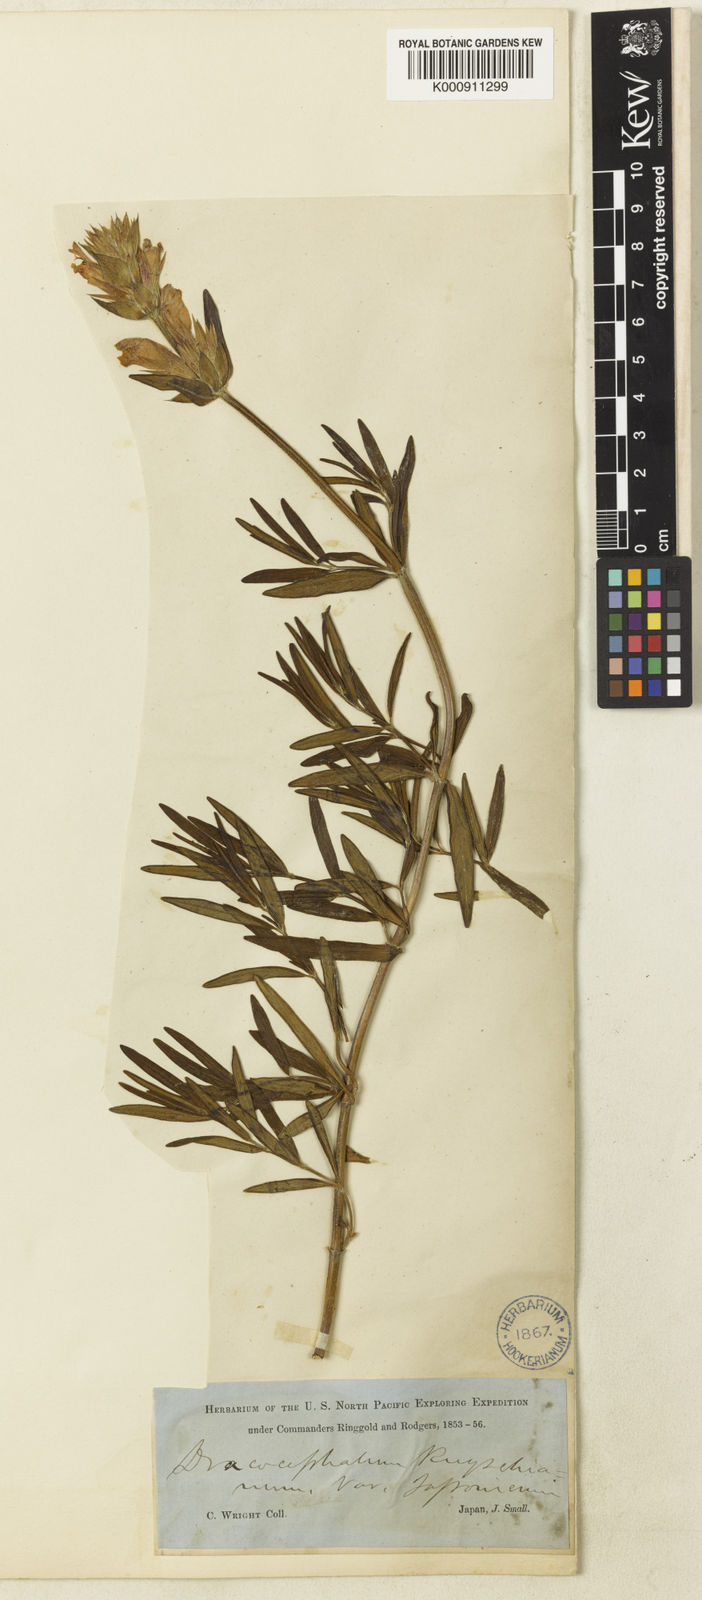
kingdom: Plantae
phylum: Tracheophyta
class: Magnoliopsida
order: Lamiales
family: Lamiaceae
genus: Dracocephalum
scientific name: Dracocephalum ruyschiana
